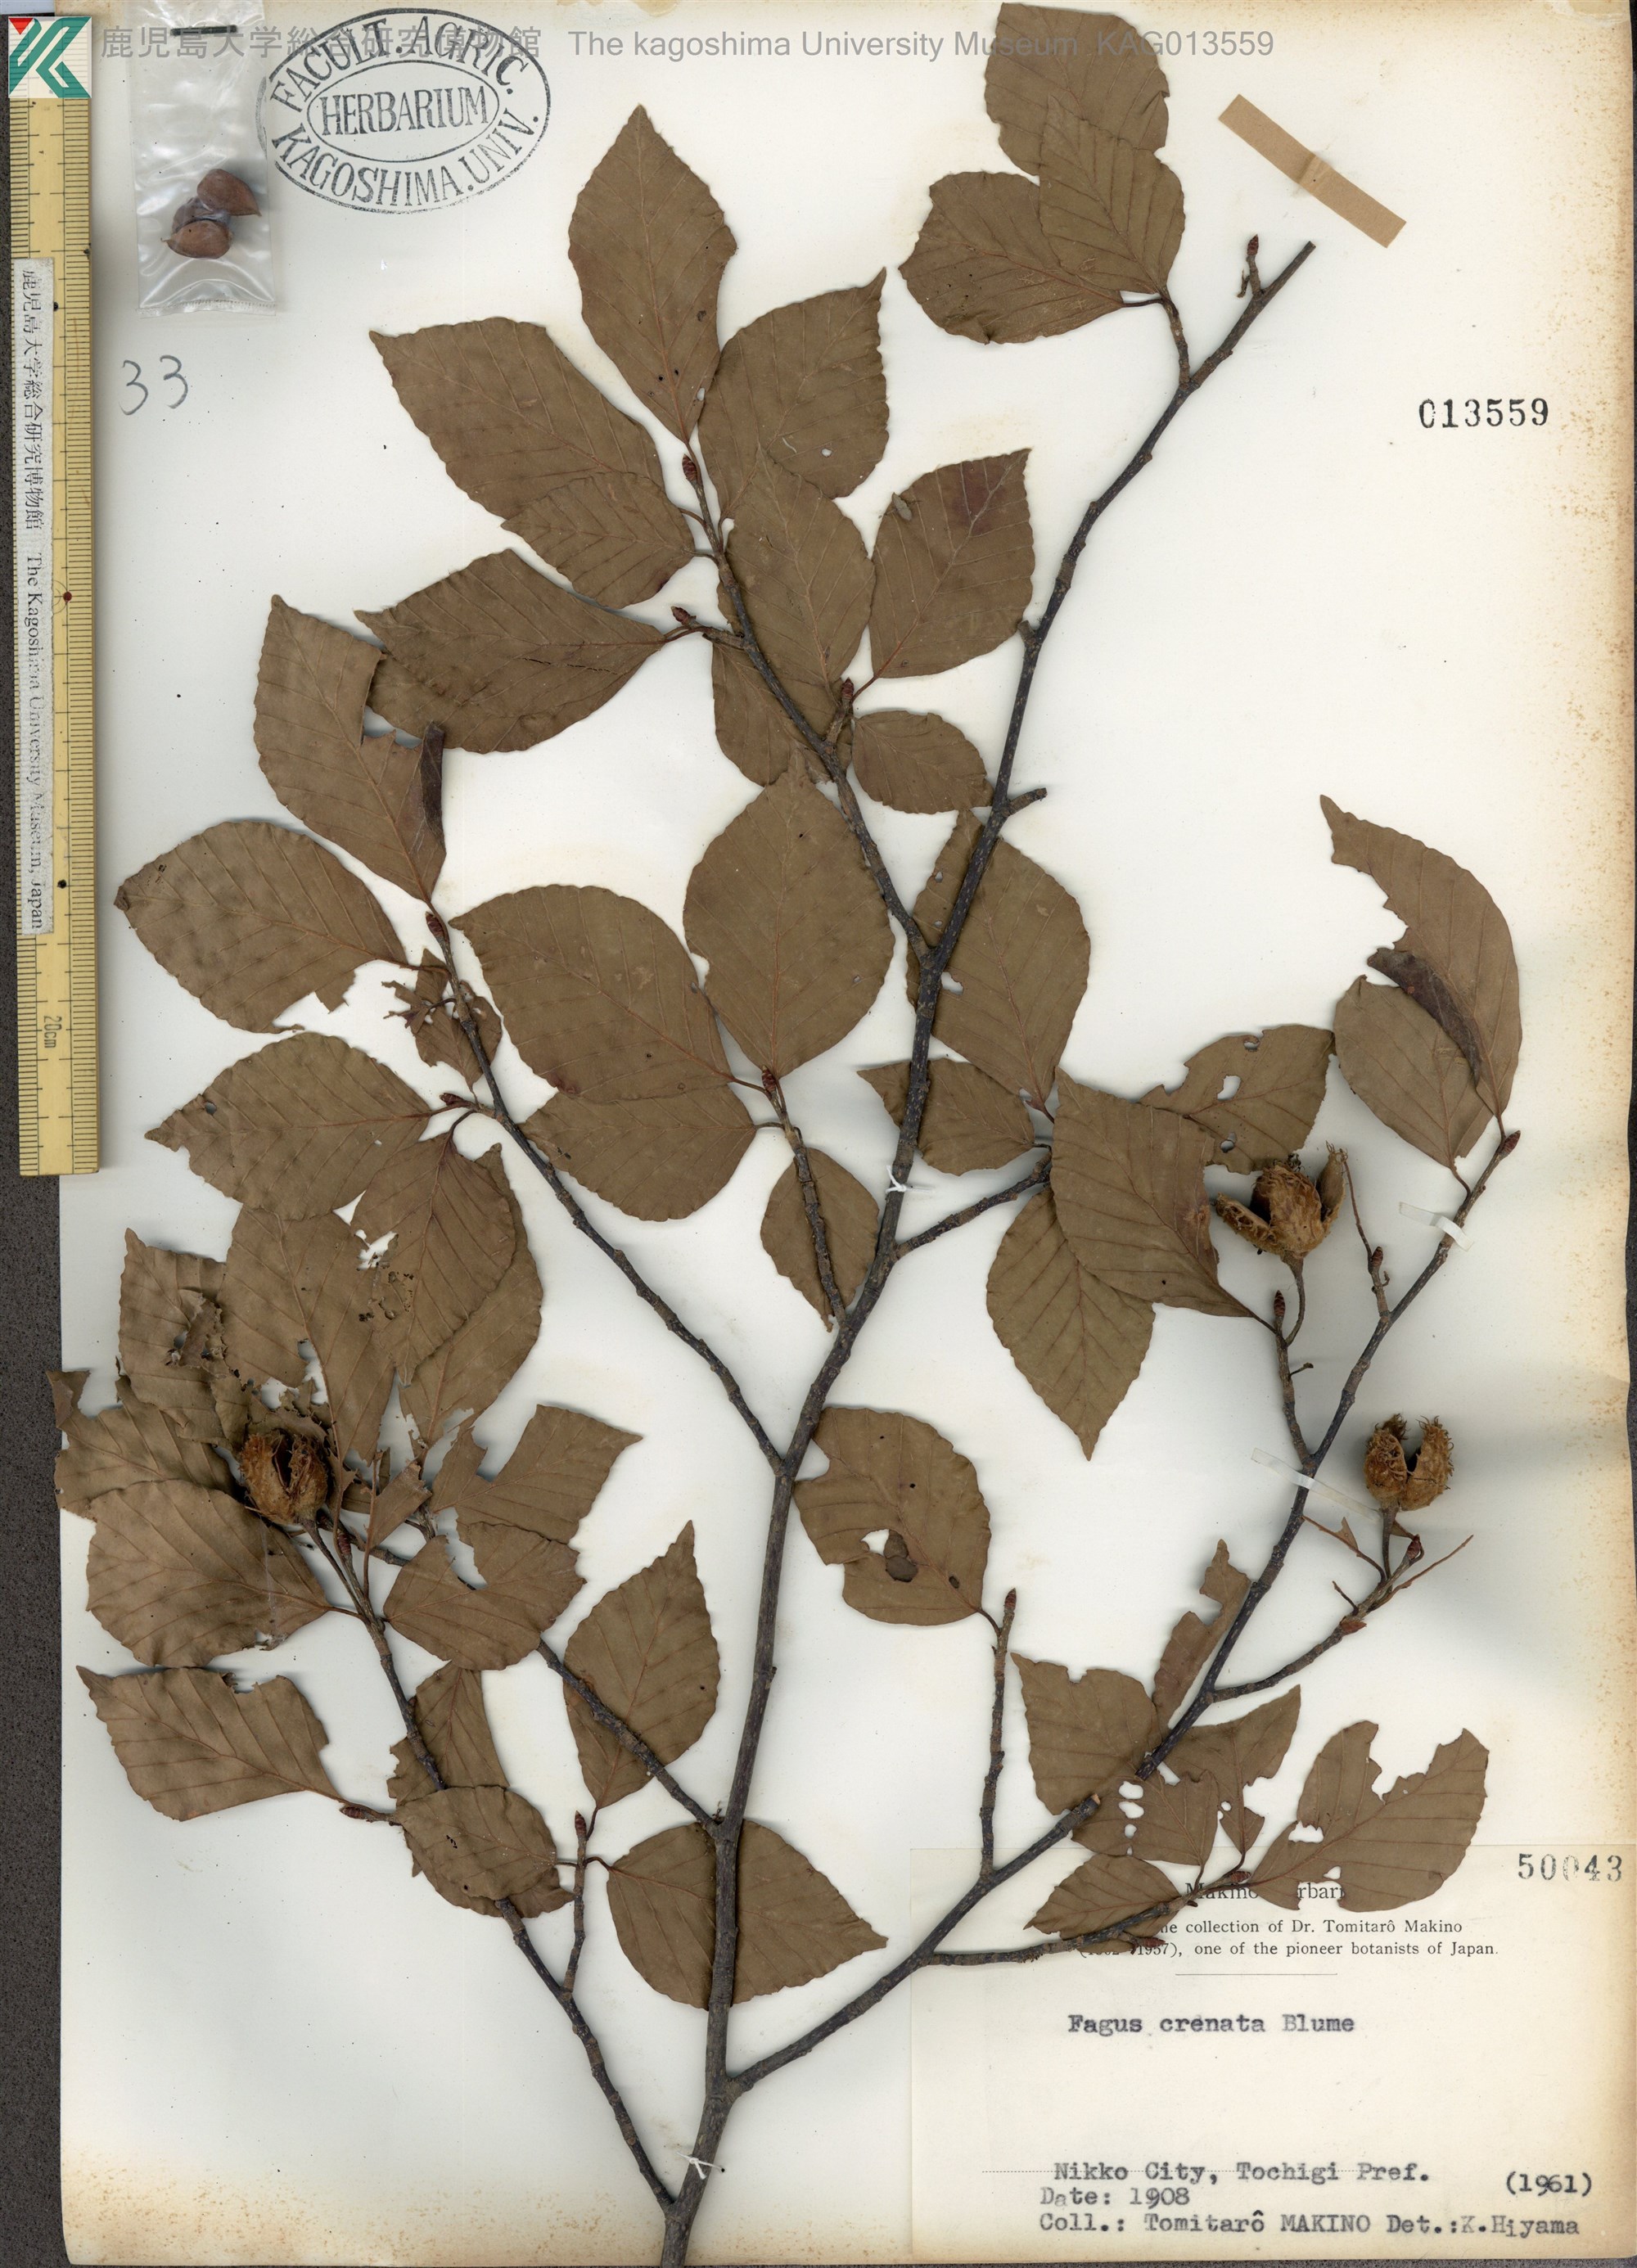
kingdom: Plantae
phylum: Tracheophyta
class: Magnoliopsida
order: Fagales
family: Fagaceae
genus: Fagus
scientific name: Fagus crenata
